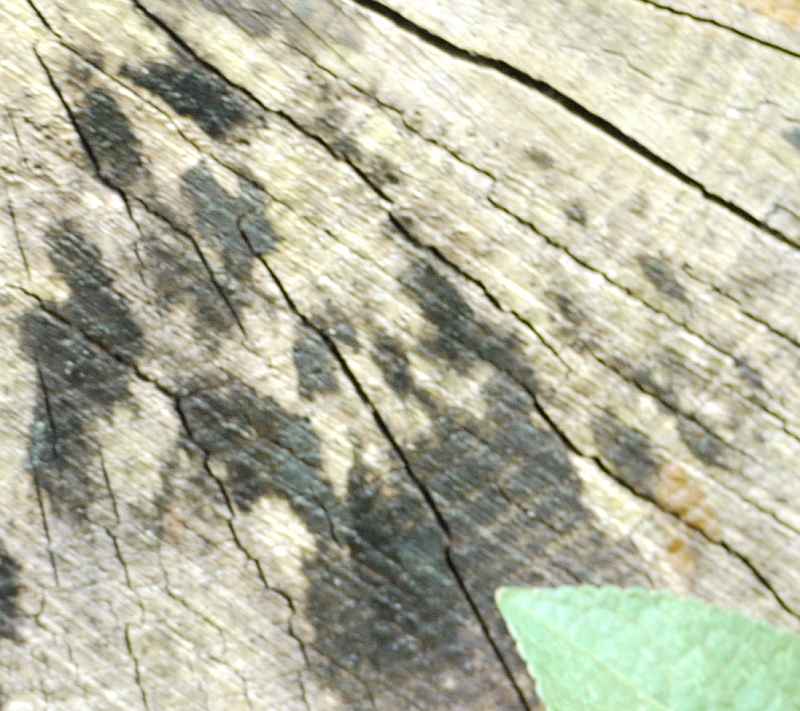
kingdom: Fungi
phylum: Ascomycota
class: Leotiomycetes
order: Helotiales
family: Helotiaceae
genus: Bispora
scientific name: Bispora pallescens
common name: måtte-snitskive
